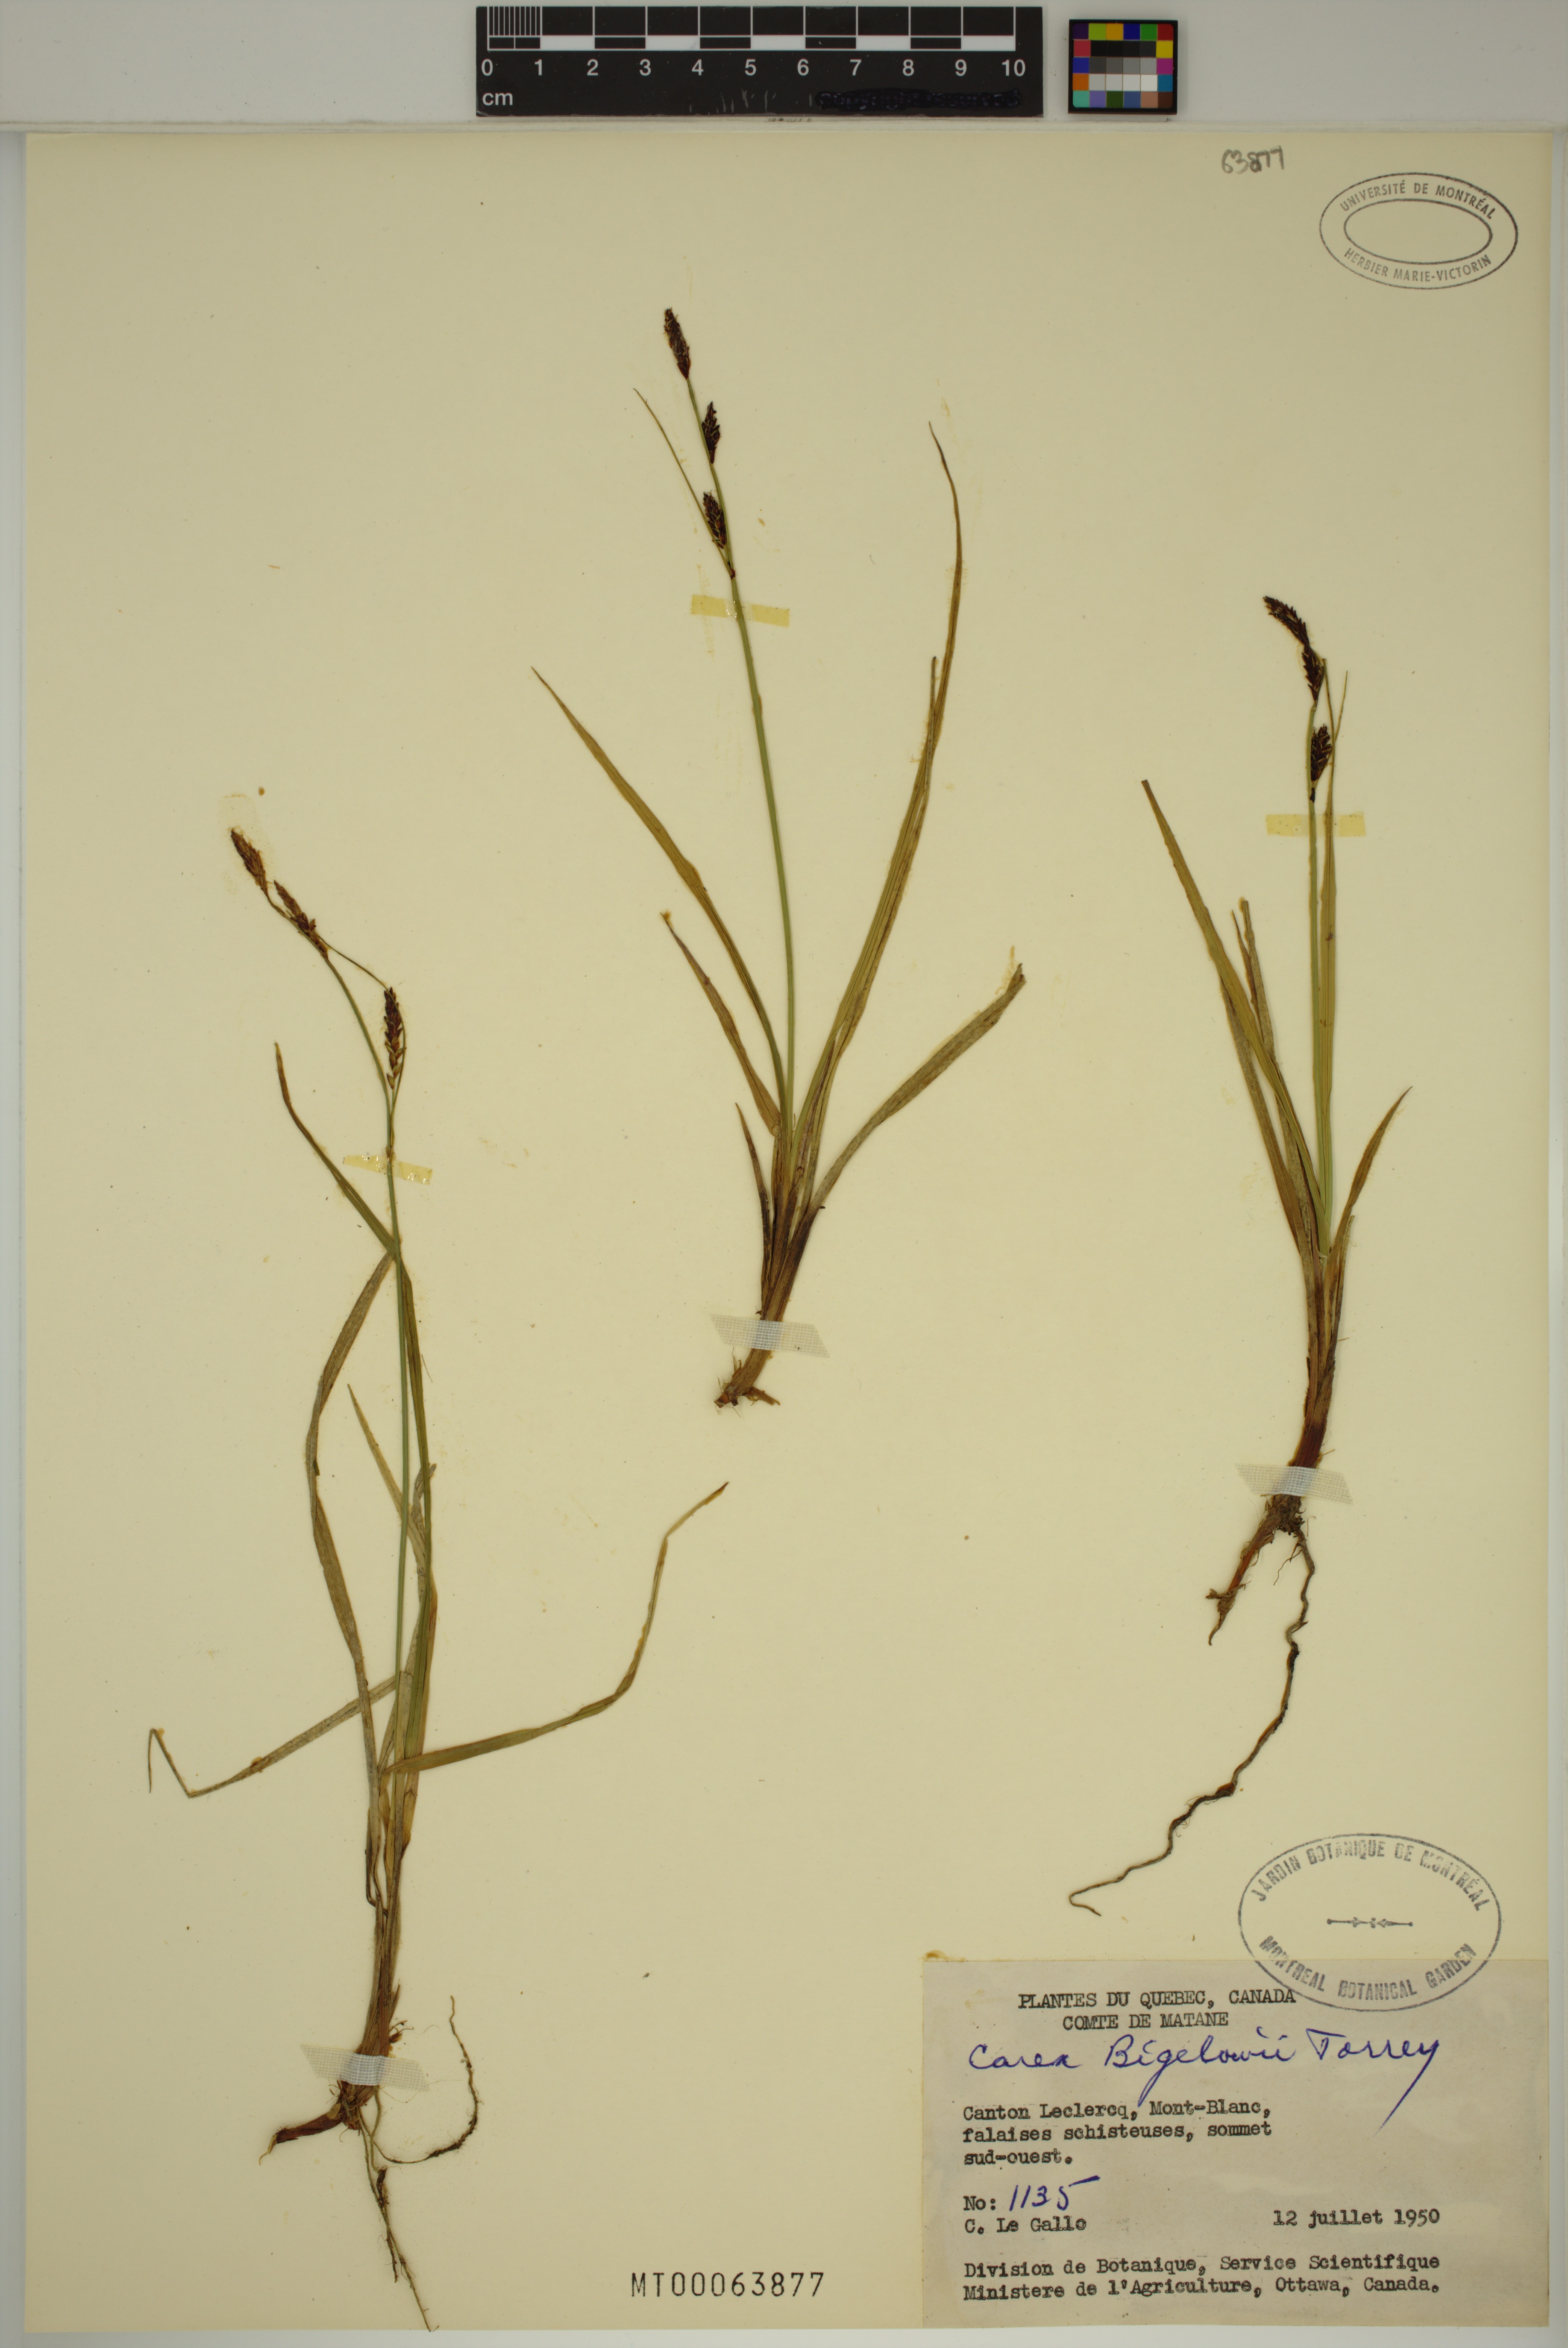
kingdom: Plantae
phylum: Tracheophyta
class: Liliopsida
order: Poales
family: Cyperaceae
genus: Carex
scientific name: Carex bigelowii
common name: Stiff sedge
